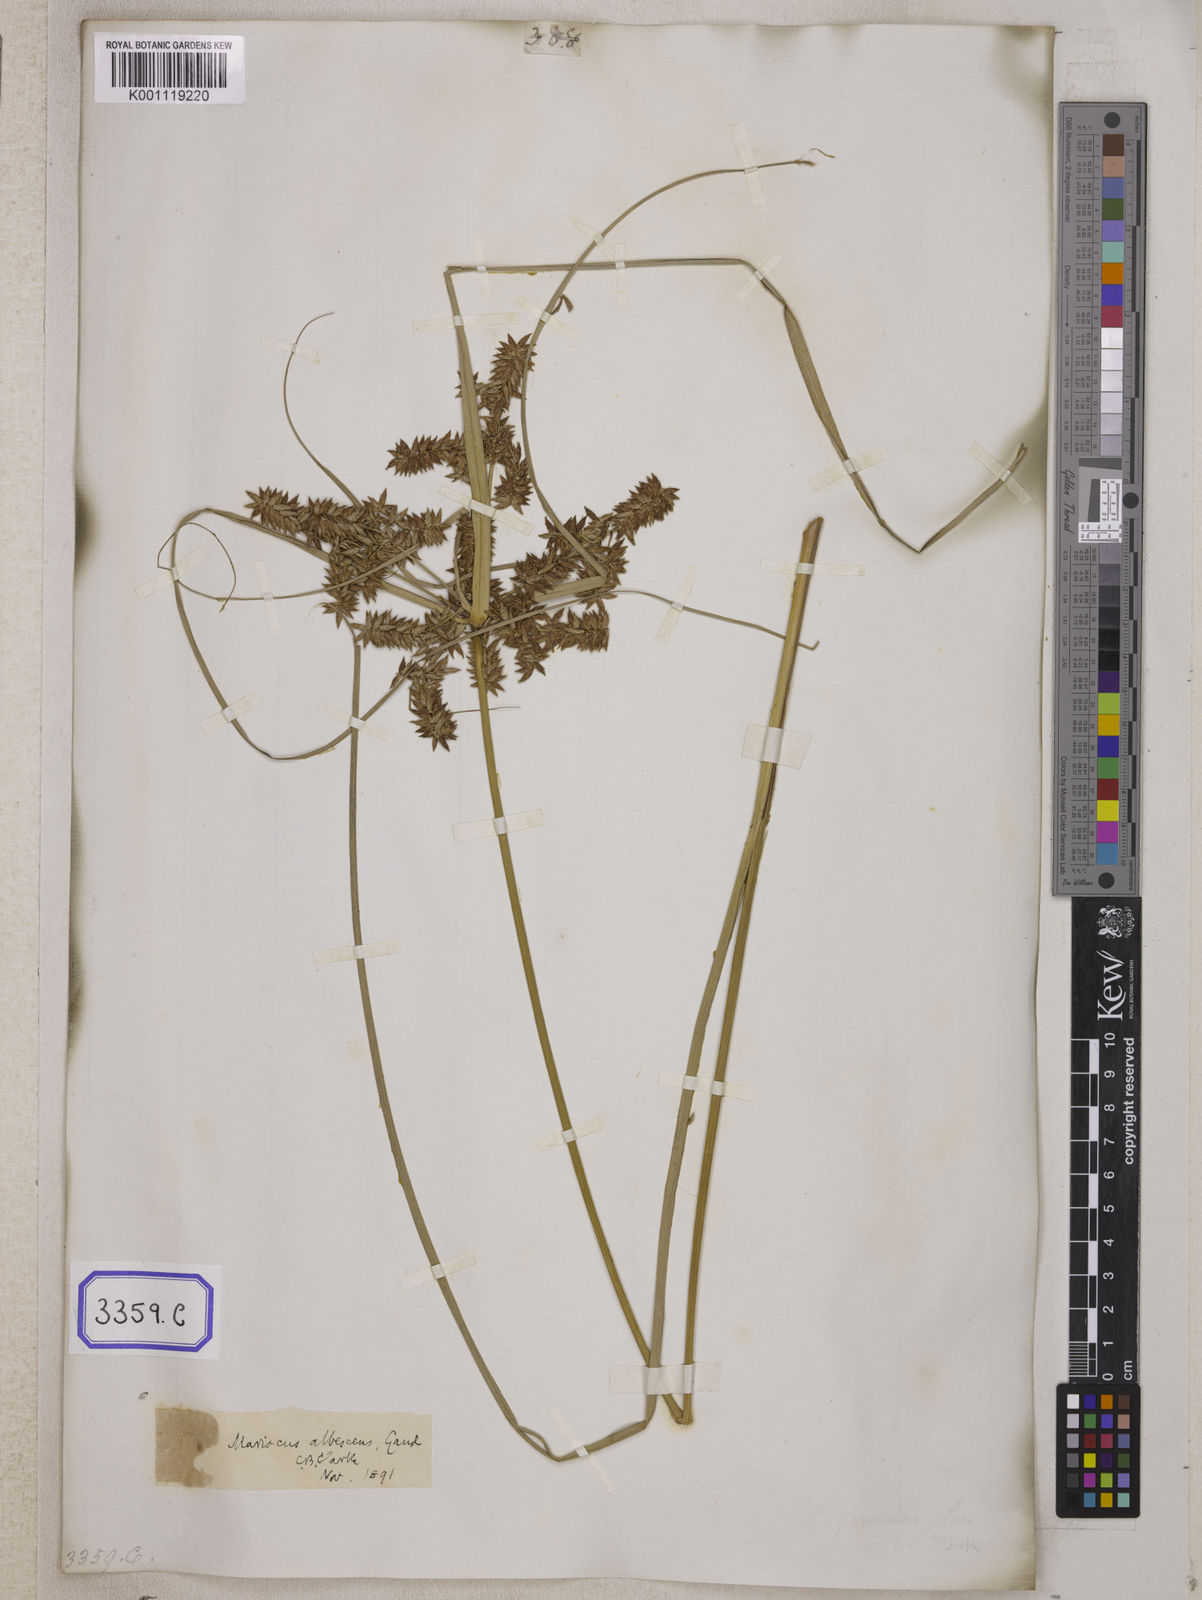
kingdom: Plantae
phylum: Tracheophyta
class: Liliopsida
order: Poales
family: Cyperaceae
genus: Cyperus
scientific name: Cyperus
